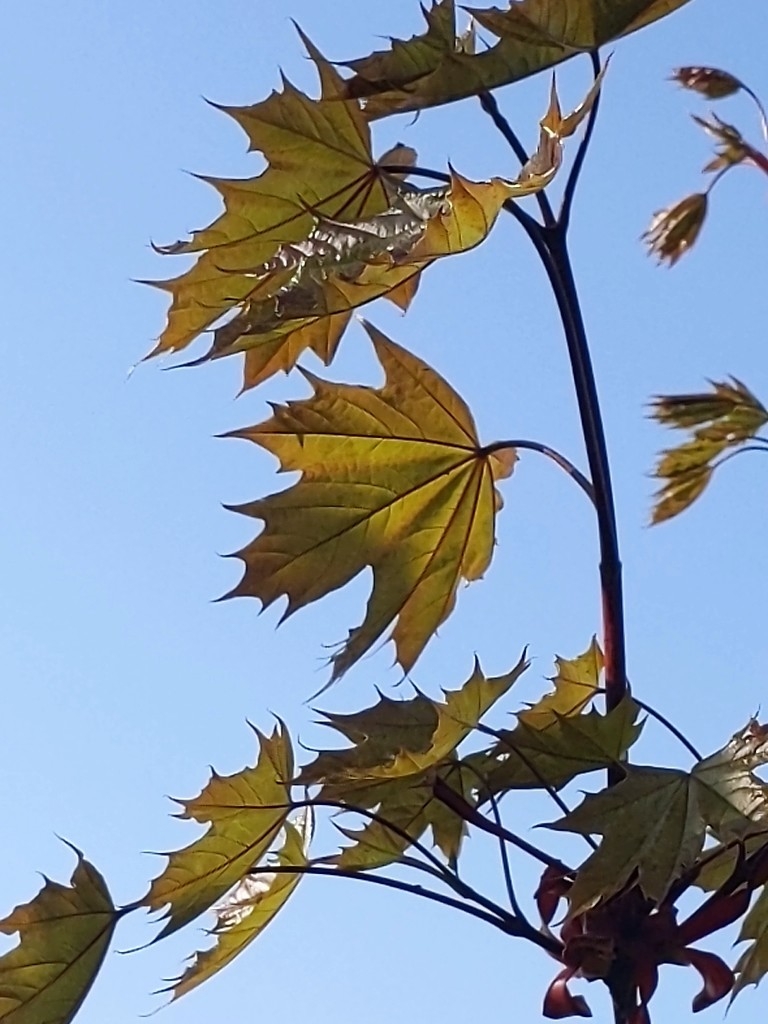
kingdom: Plantae
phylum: Tracheophyta
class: Magnoliopsida
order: Sapindales
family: Sapindaceae
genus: Acer
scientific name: Acer platanoides
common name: Spids-løn
